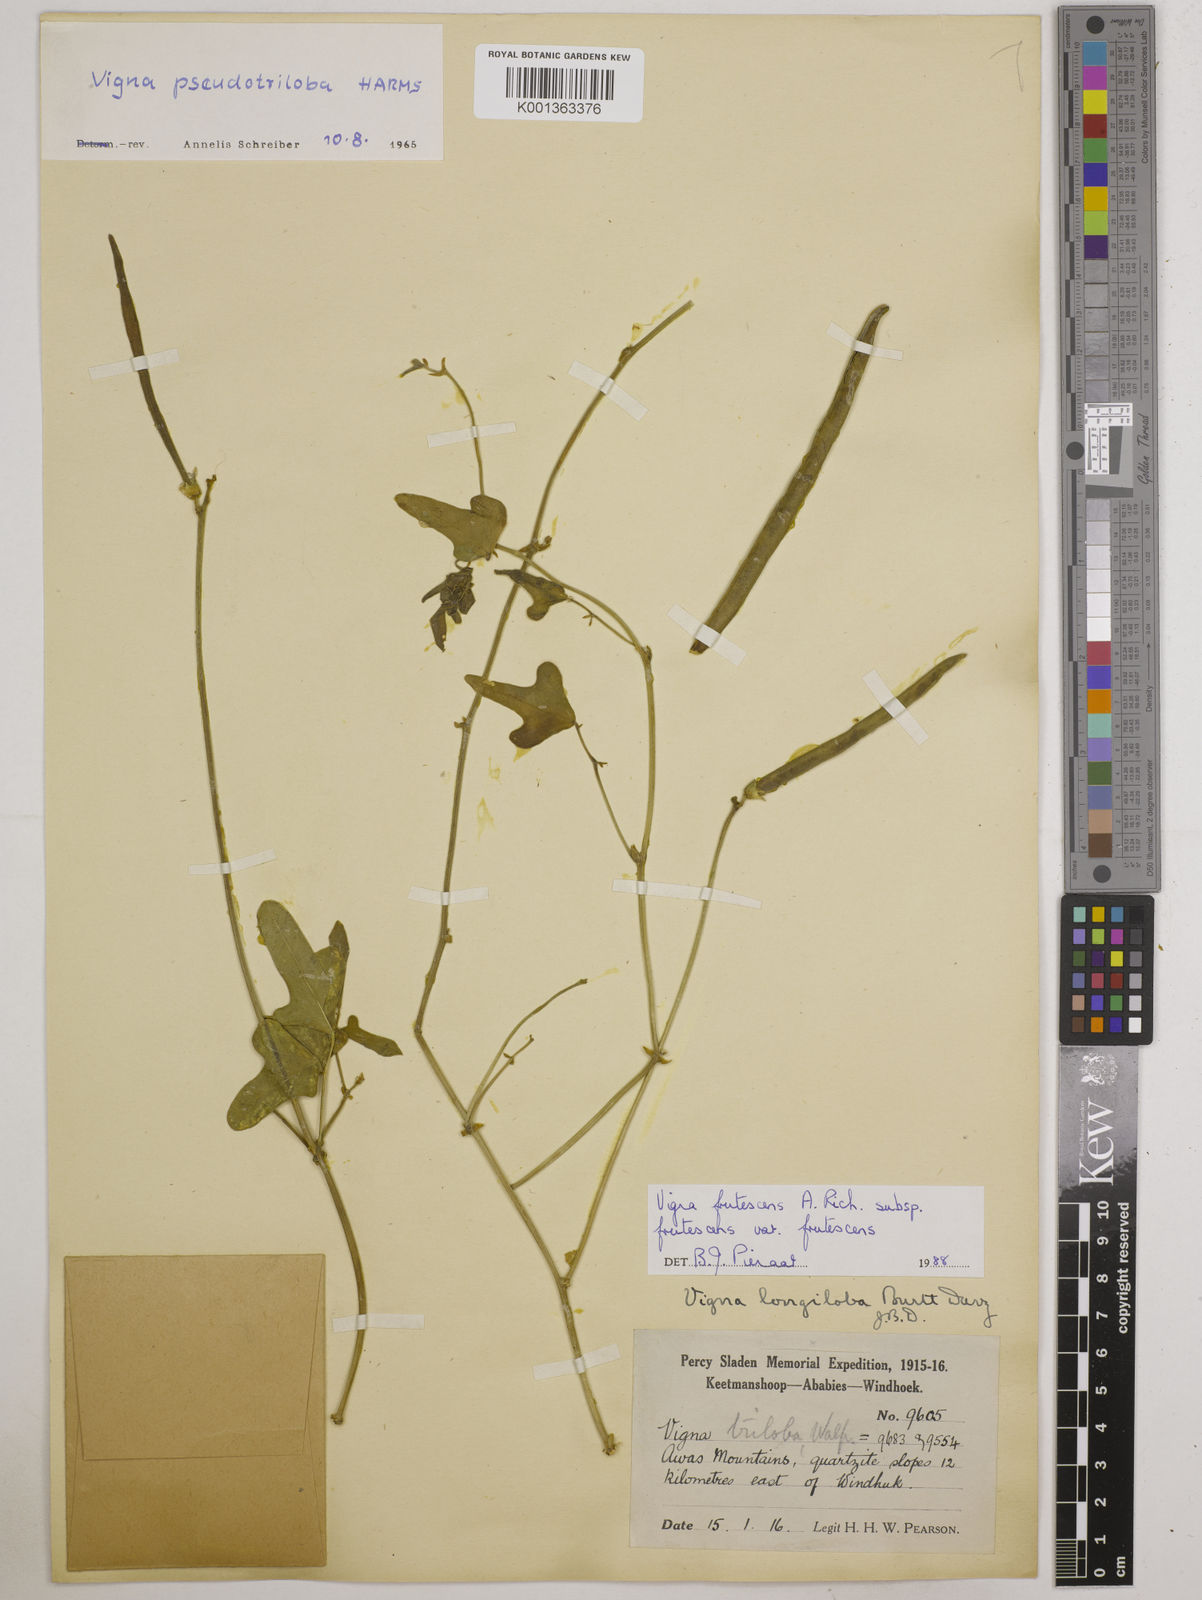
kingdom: Plantae
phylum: Tracheophyta
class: Magnoliopsida
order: Fabales
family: Fabaceae
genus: Vigna
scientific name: Vigna frutescens
